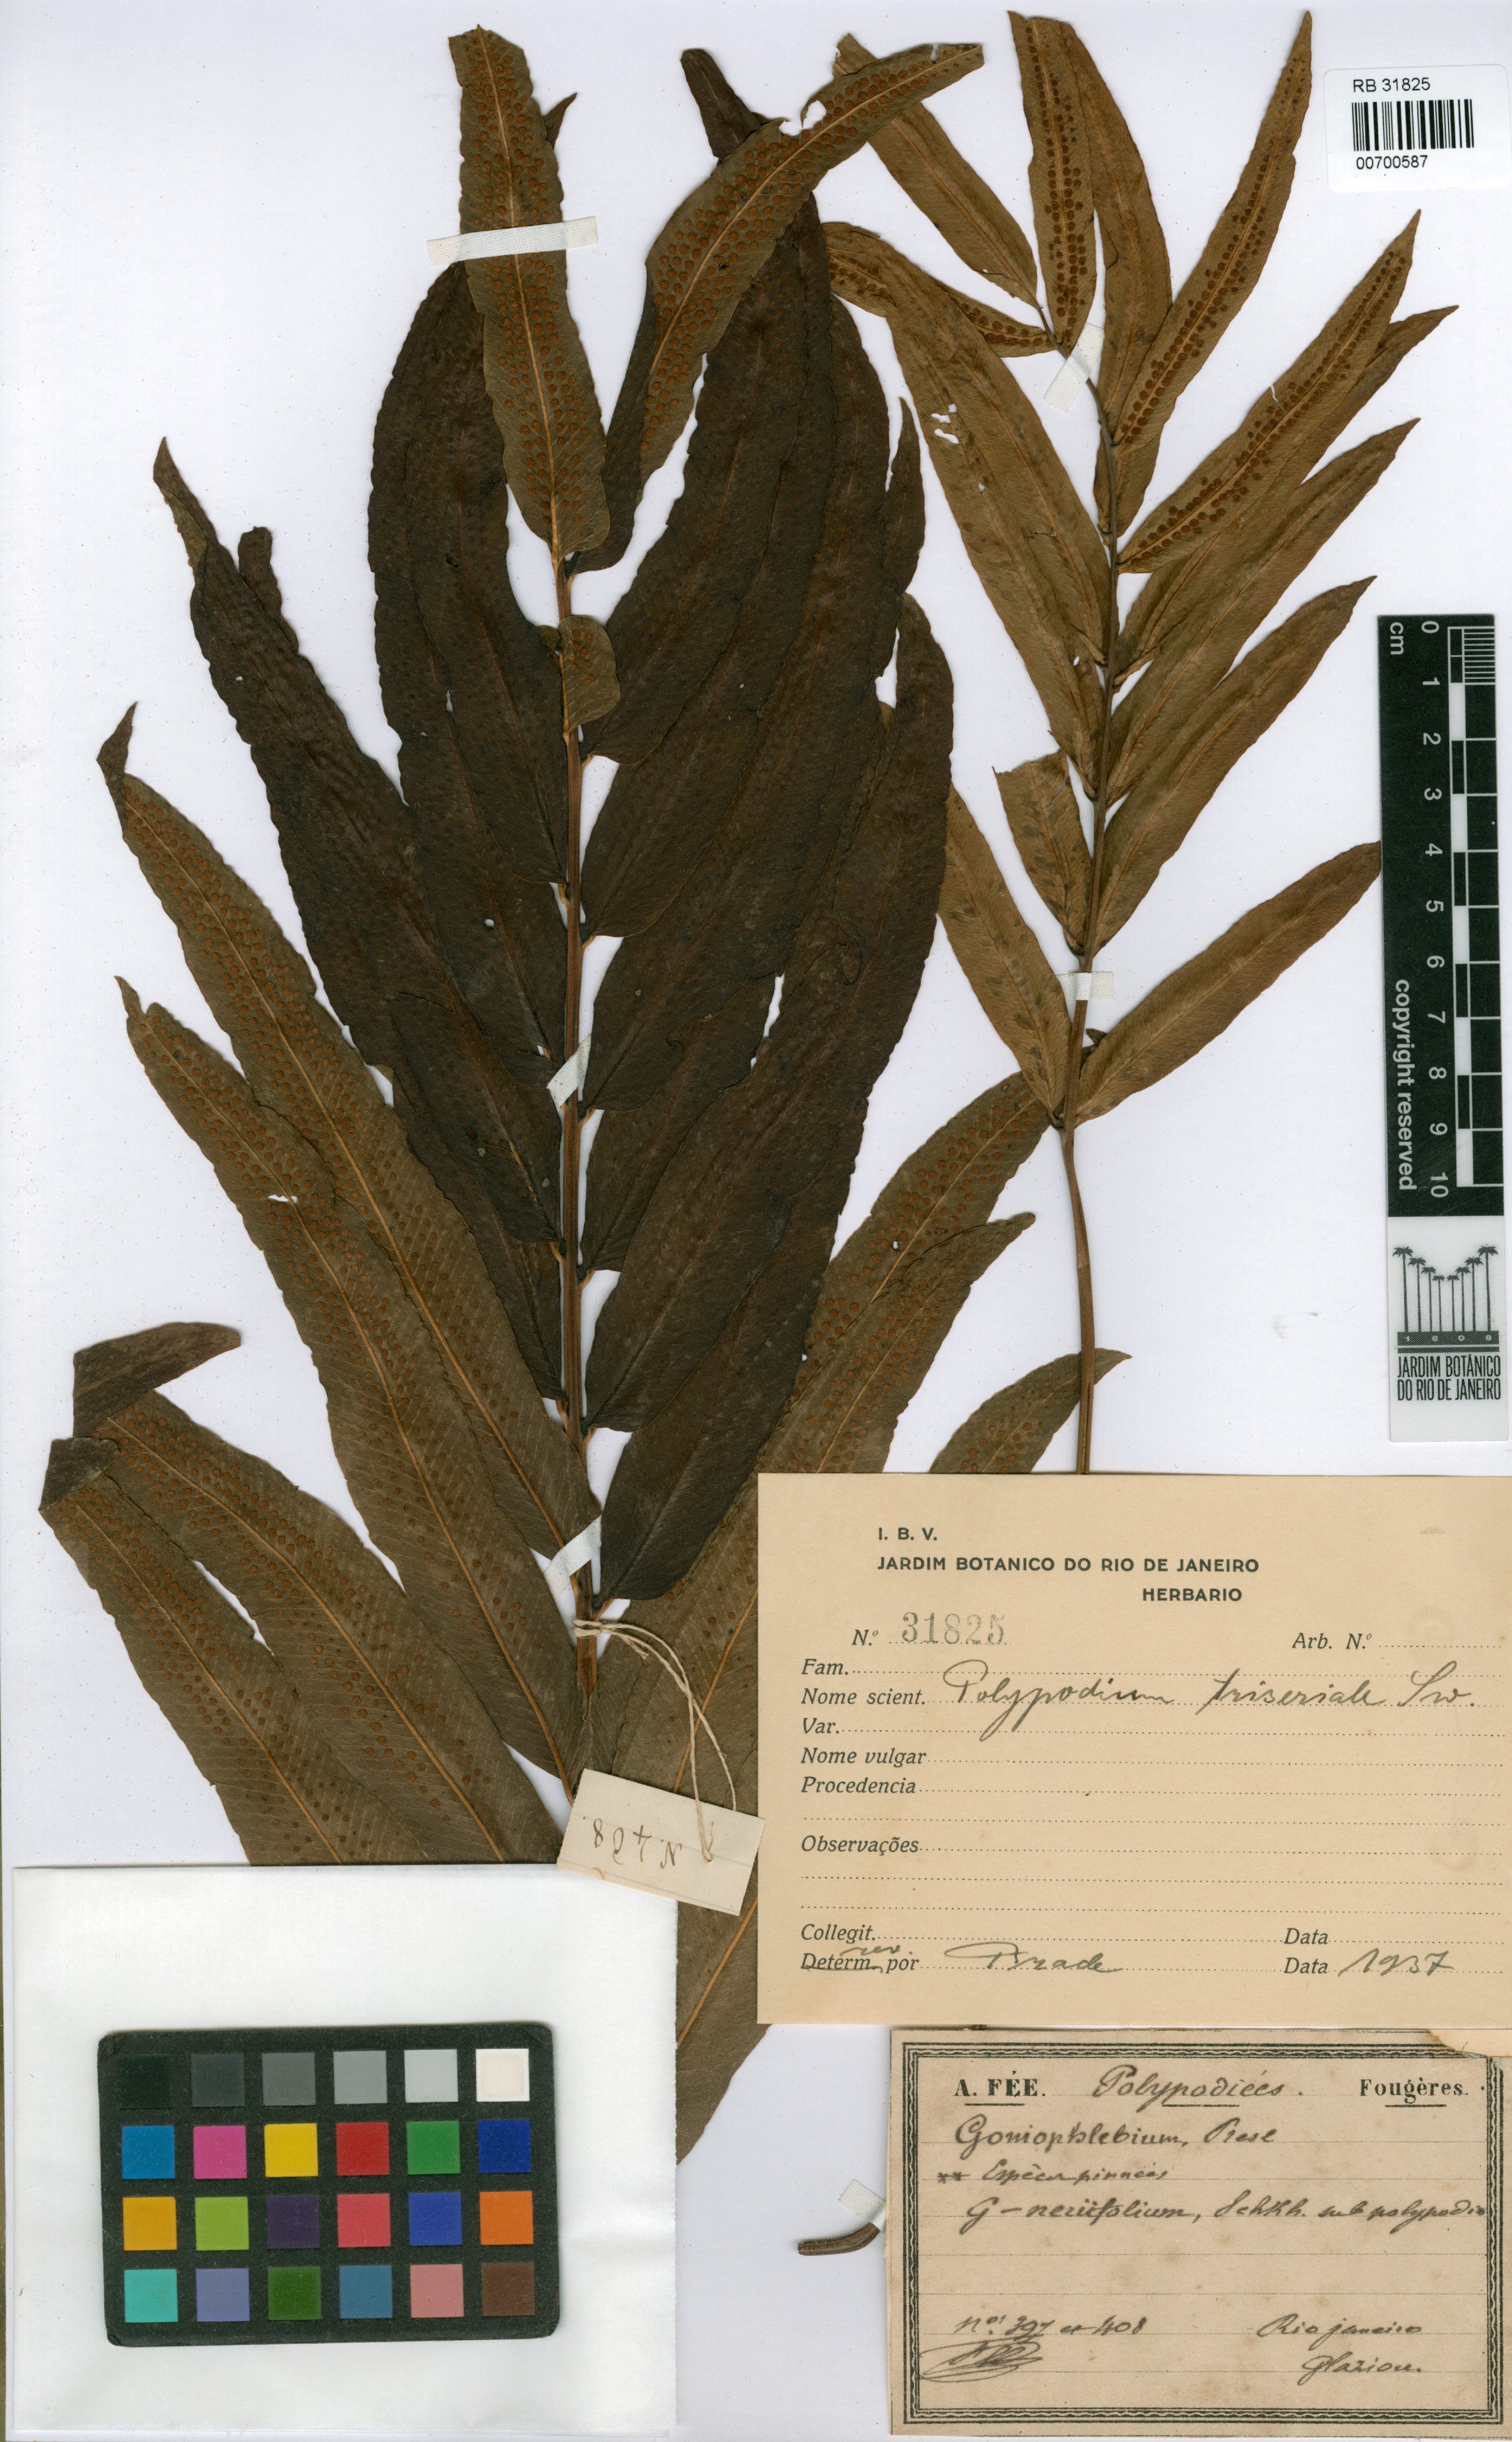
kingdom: Plantae
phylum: Tracheophyta
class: Polypodiopsida
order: Polypodiales
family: Polypodiaceae
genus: Serpocaulon
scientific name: Serpocaulon triseriale
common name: Angle-vein fern
